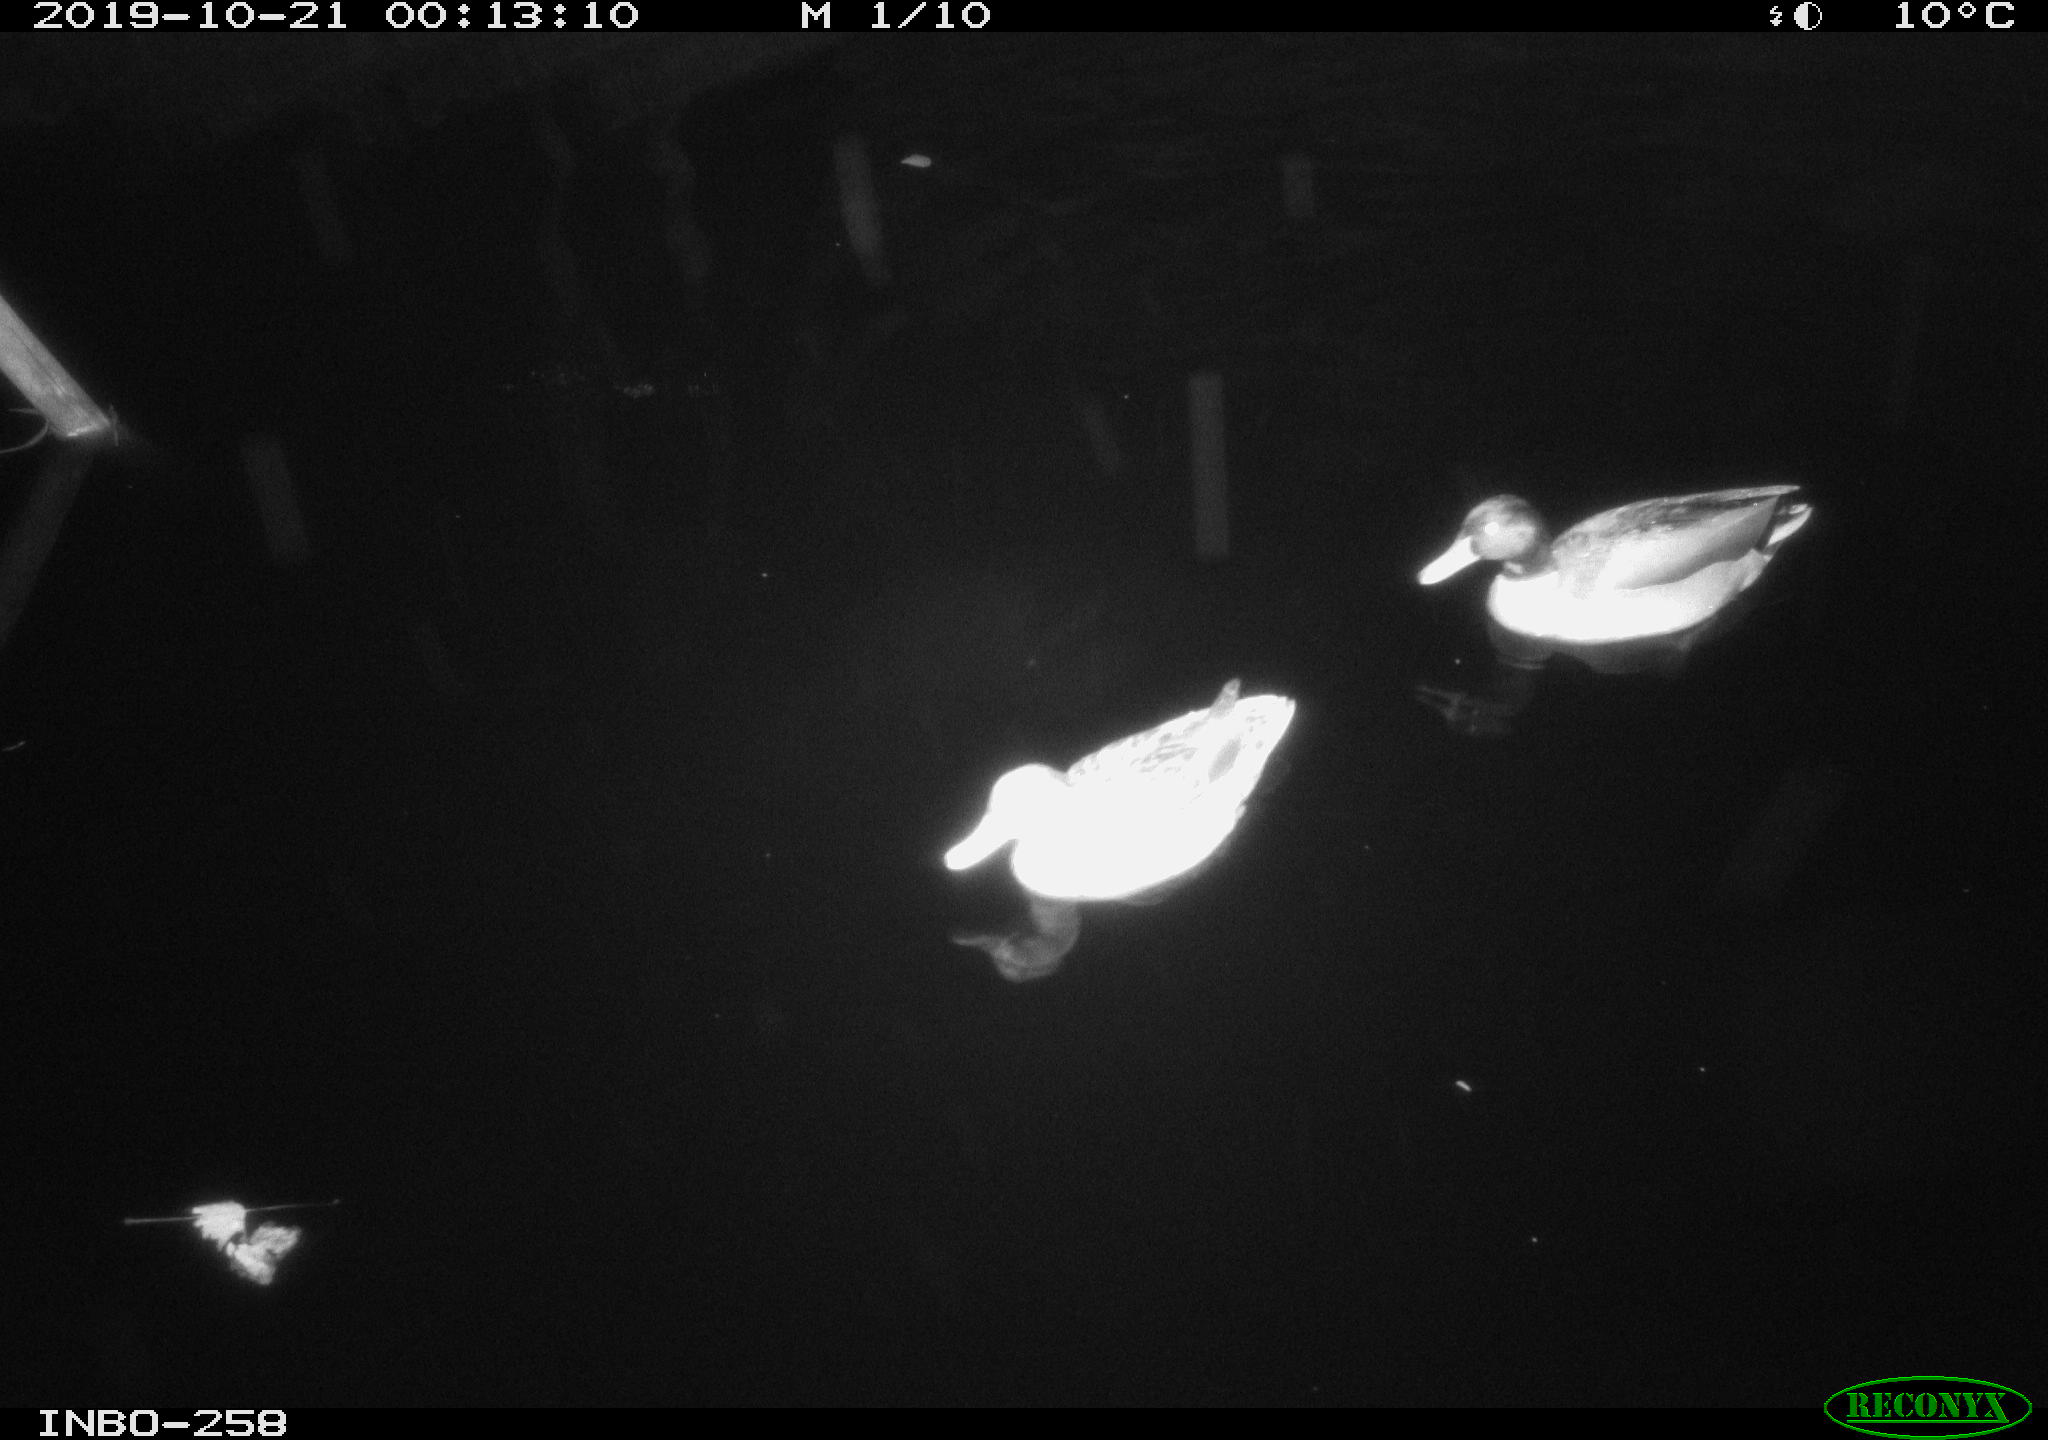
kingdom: Animalia
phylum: Chordata
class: Aves
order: Anseriformes
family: Anatidae
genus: Anas
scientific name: Anas platyrhynchos
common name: Mallard
